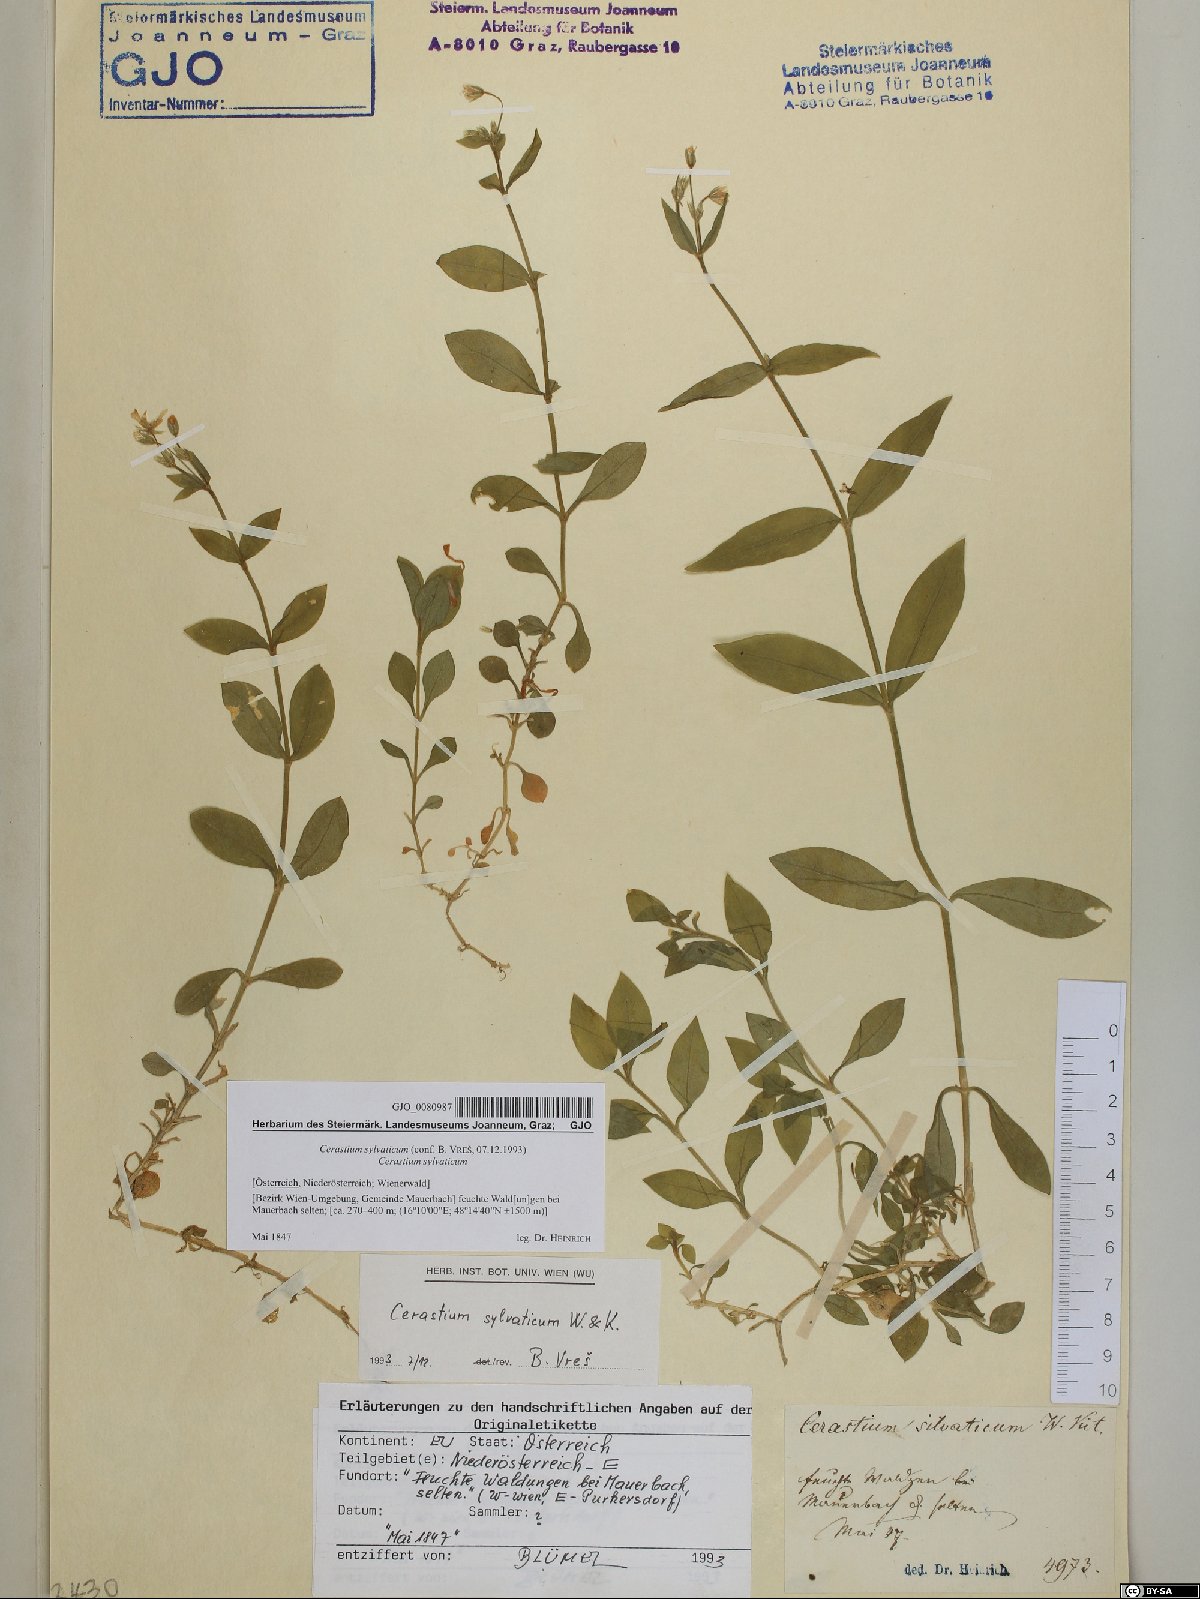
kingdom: Plantae
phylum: Tracheophyta
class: Magnoliopsida
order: Caryophyllales
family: Caryophyllaceae
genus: Cerastium
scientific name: Cerastium sylvaticum
